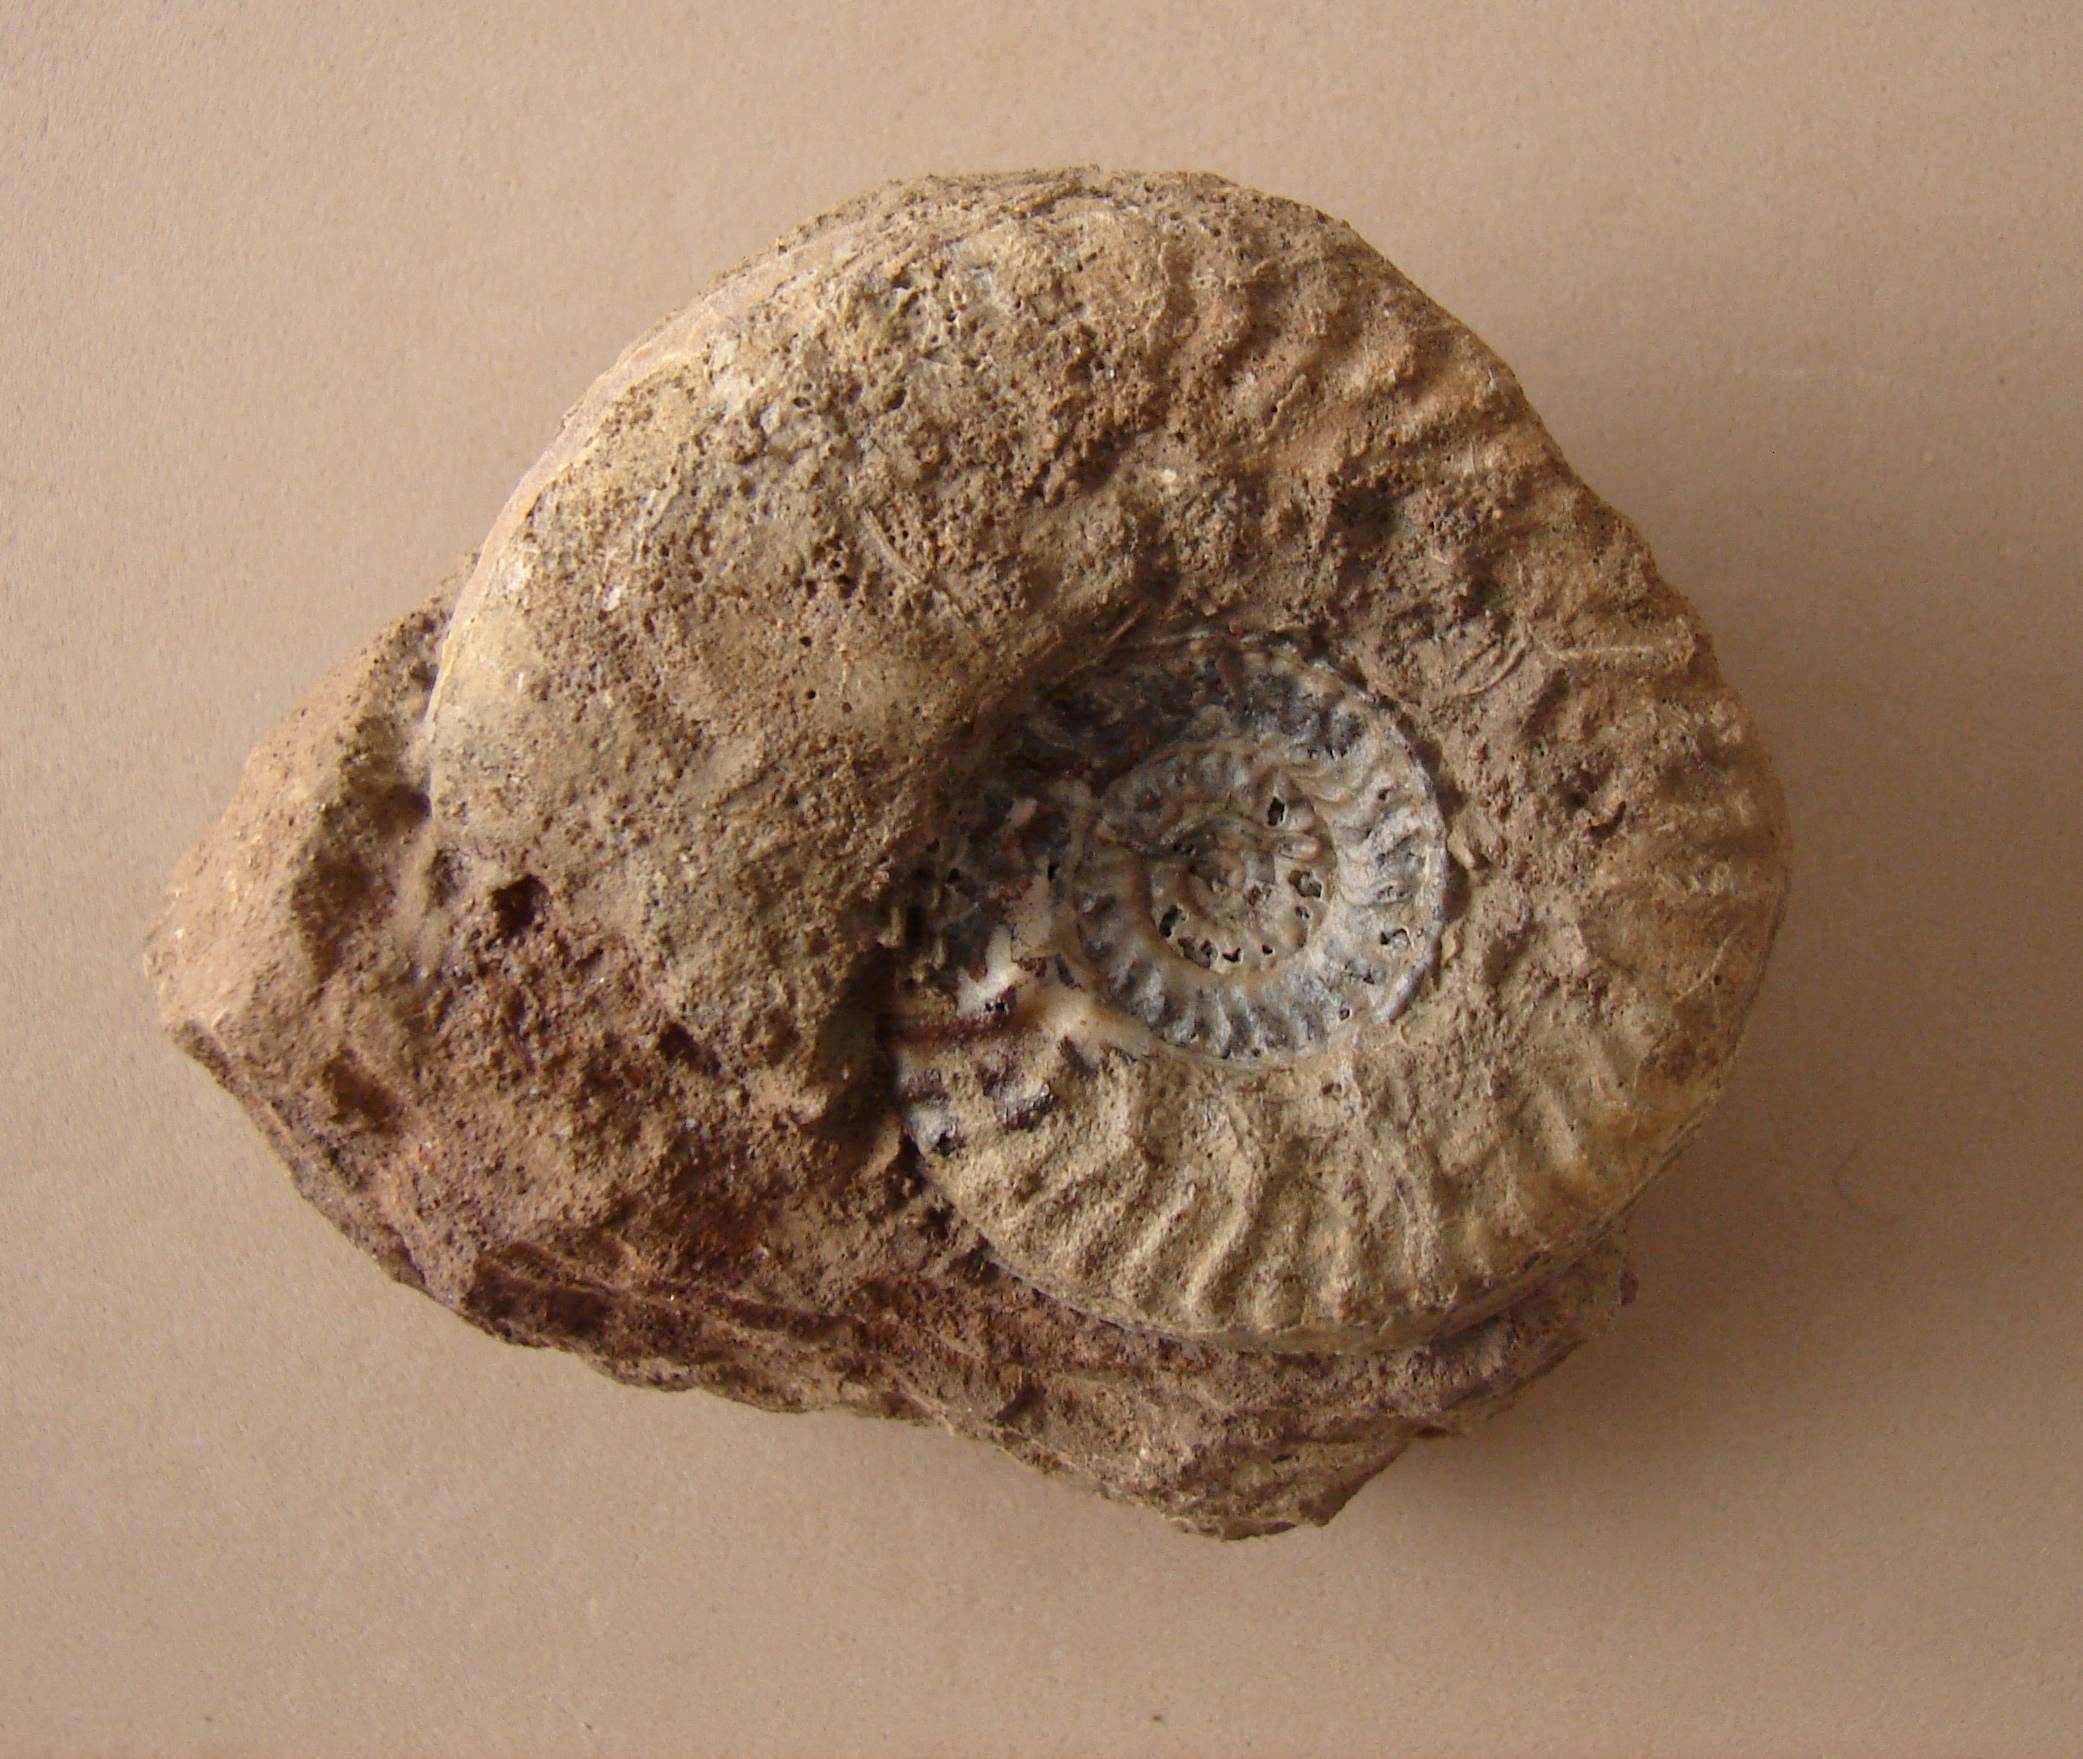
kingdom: Animalia
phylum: Mollusca
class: Cephalopoda
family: Graphoceratidae
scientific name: Graphoceratidae
